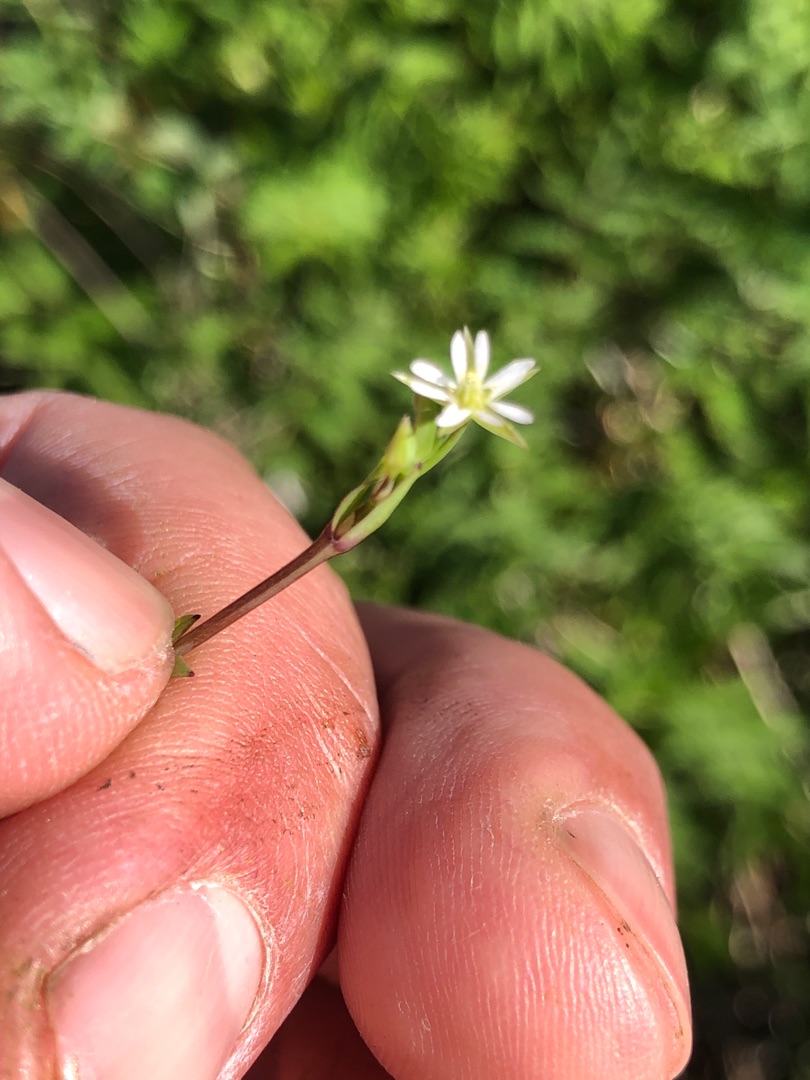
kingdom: Plantae
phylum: Tracheophyta
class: Magnoliopsida
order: Caryophyllales
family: Caryophyllaceae
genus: Stellaria
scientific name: Stellaria alsine
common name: Sump-fladstjerne
